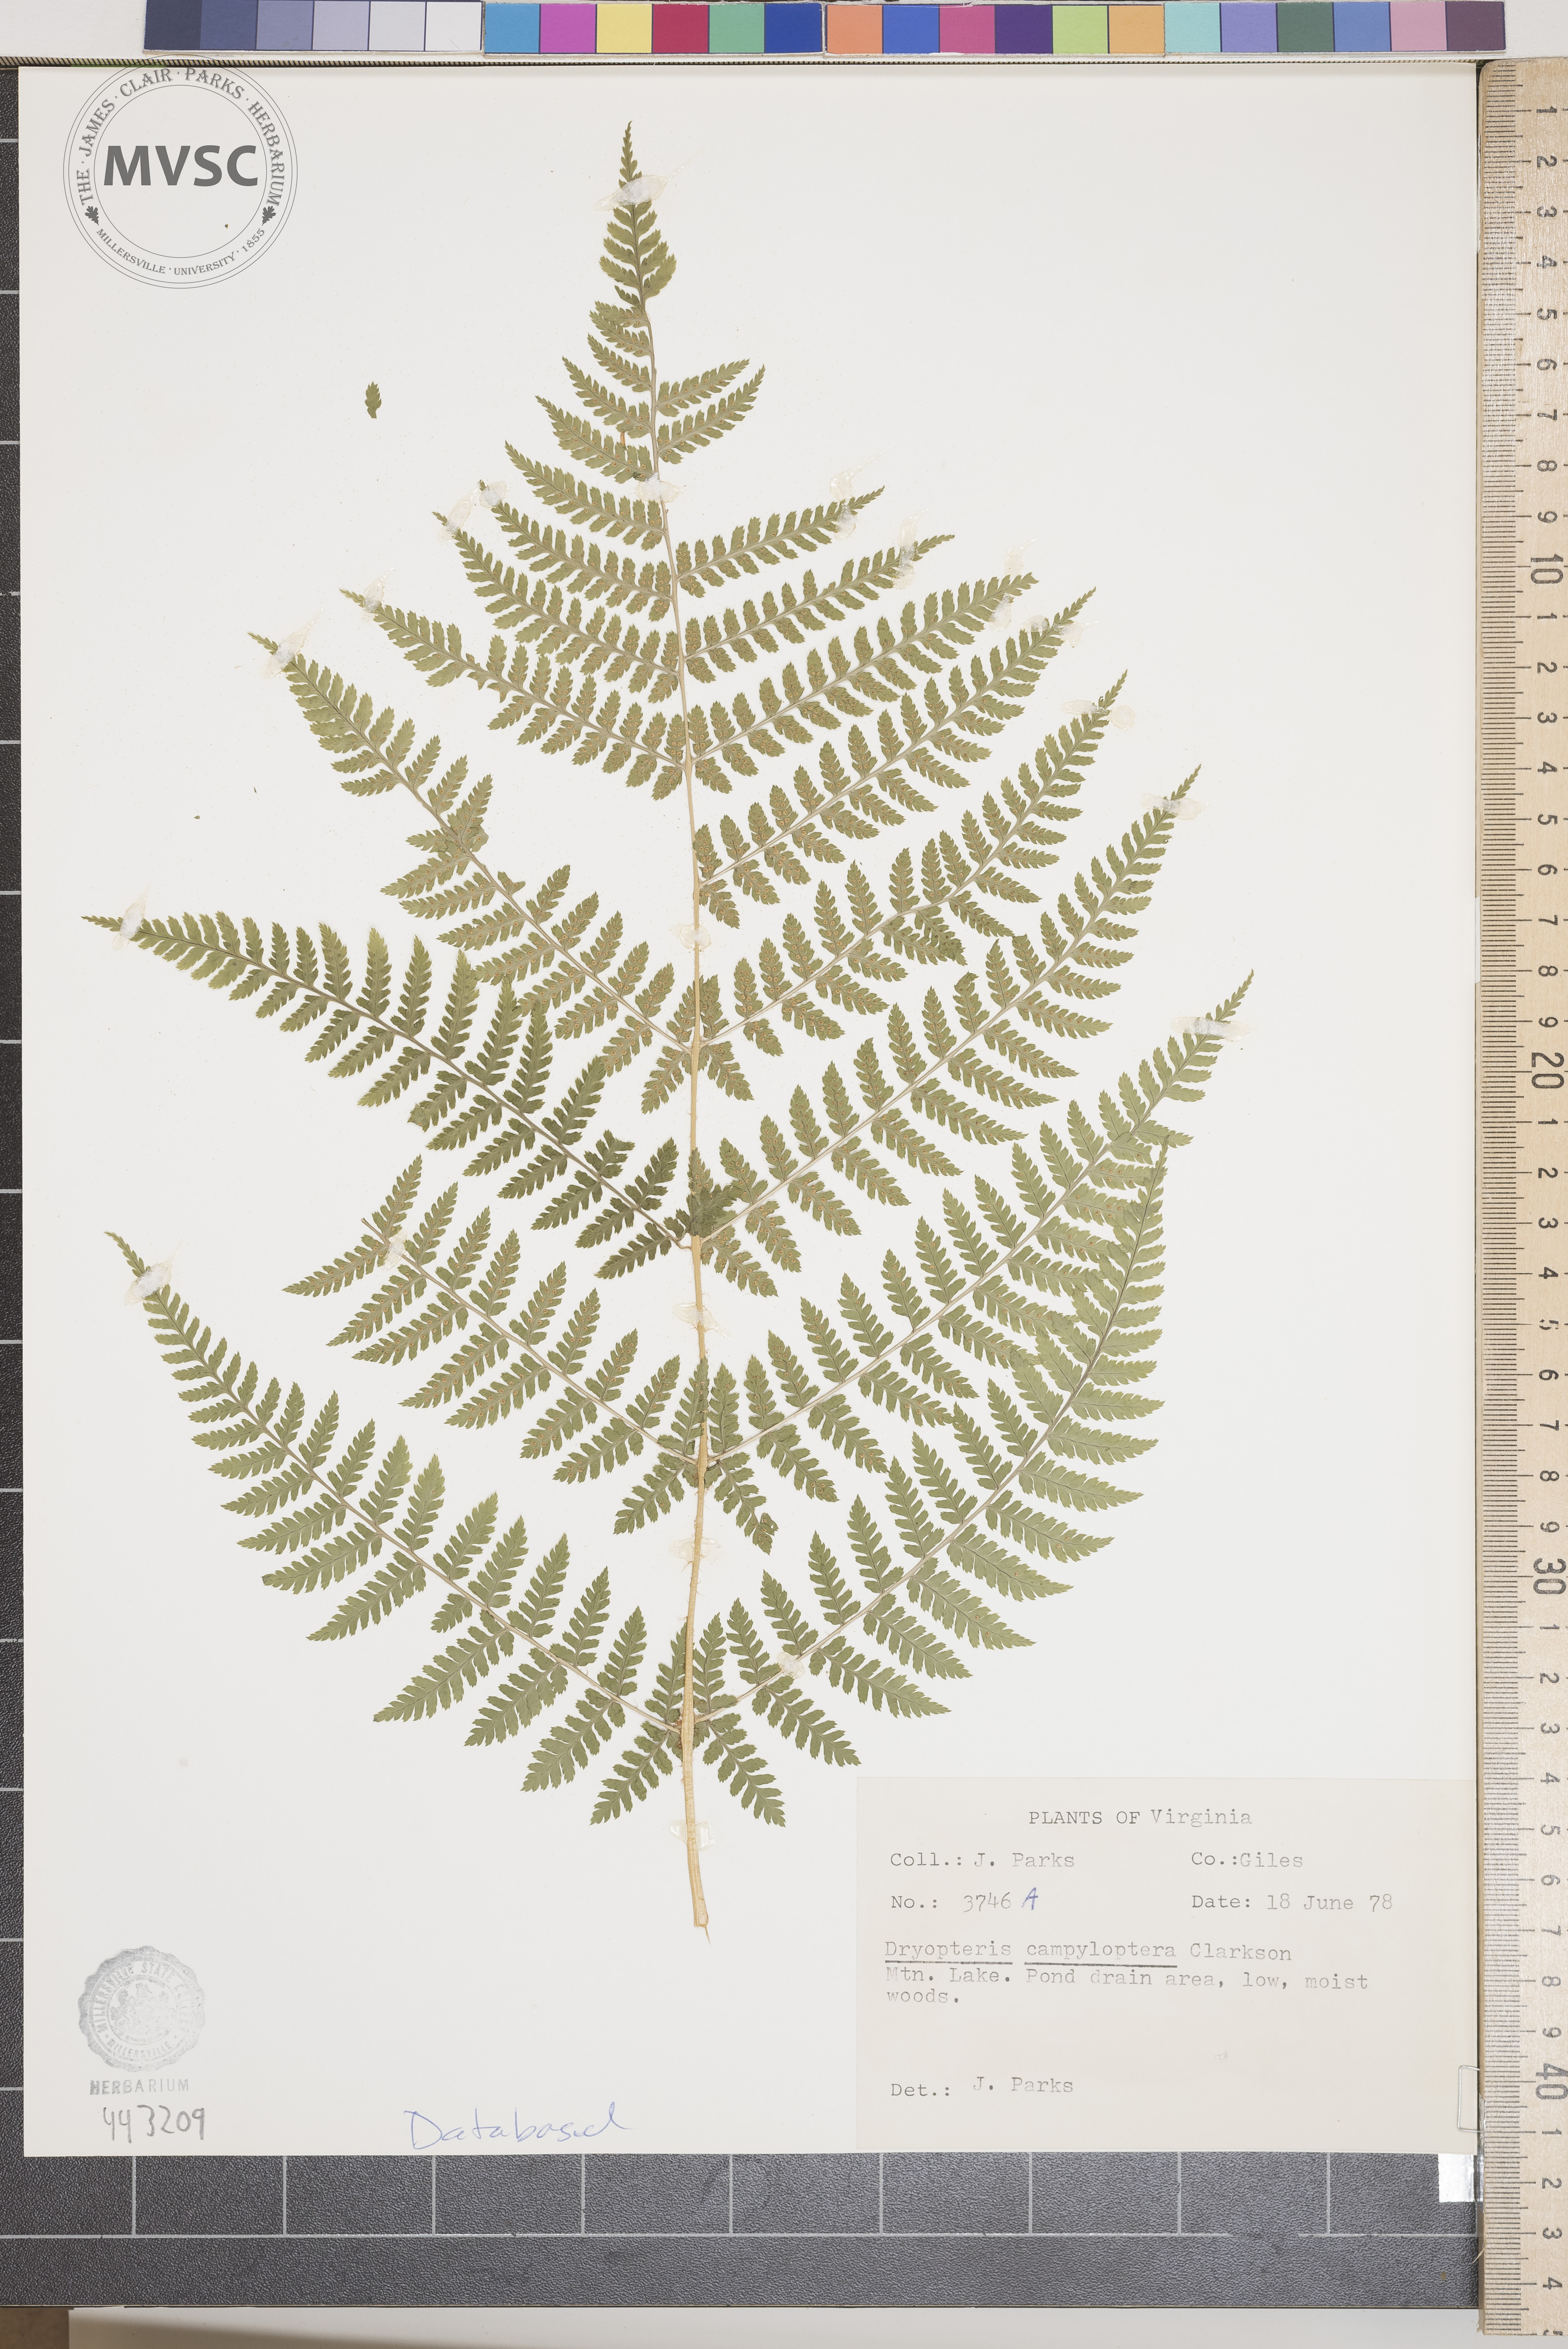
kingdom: Plantae
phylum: Tracheophyta
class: Polypodiopsida
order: Polypodiales
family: Dryopteridaceae
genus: Dryopteris
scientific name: Dryopteris campyloptera
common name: Mountain wood fern
